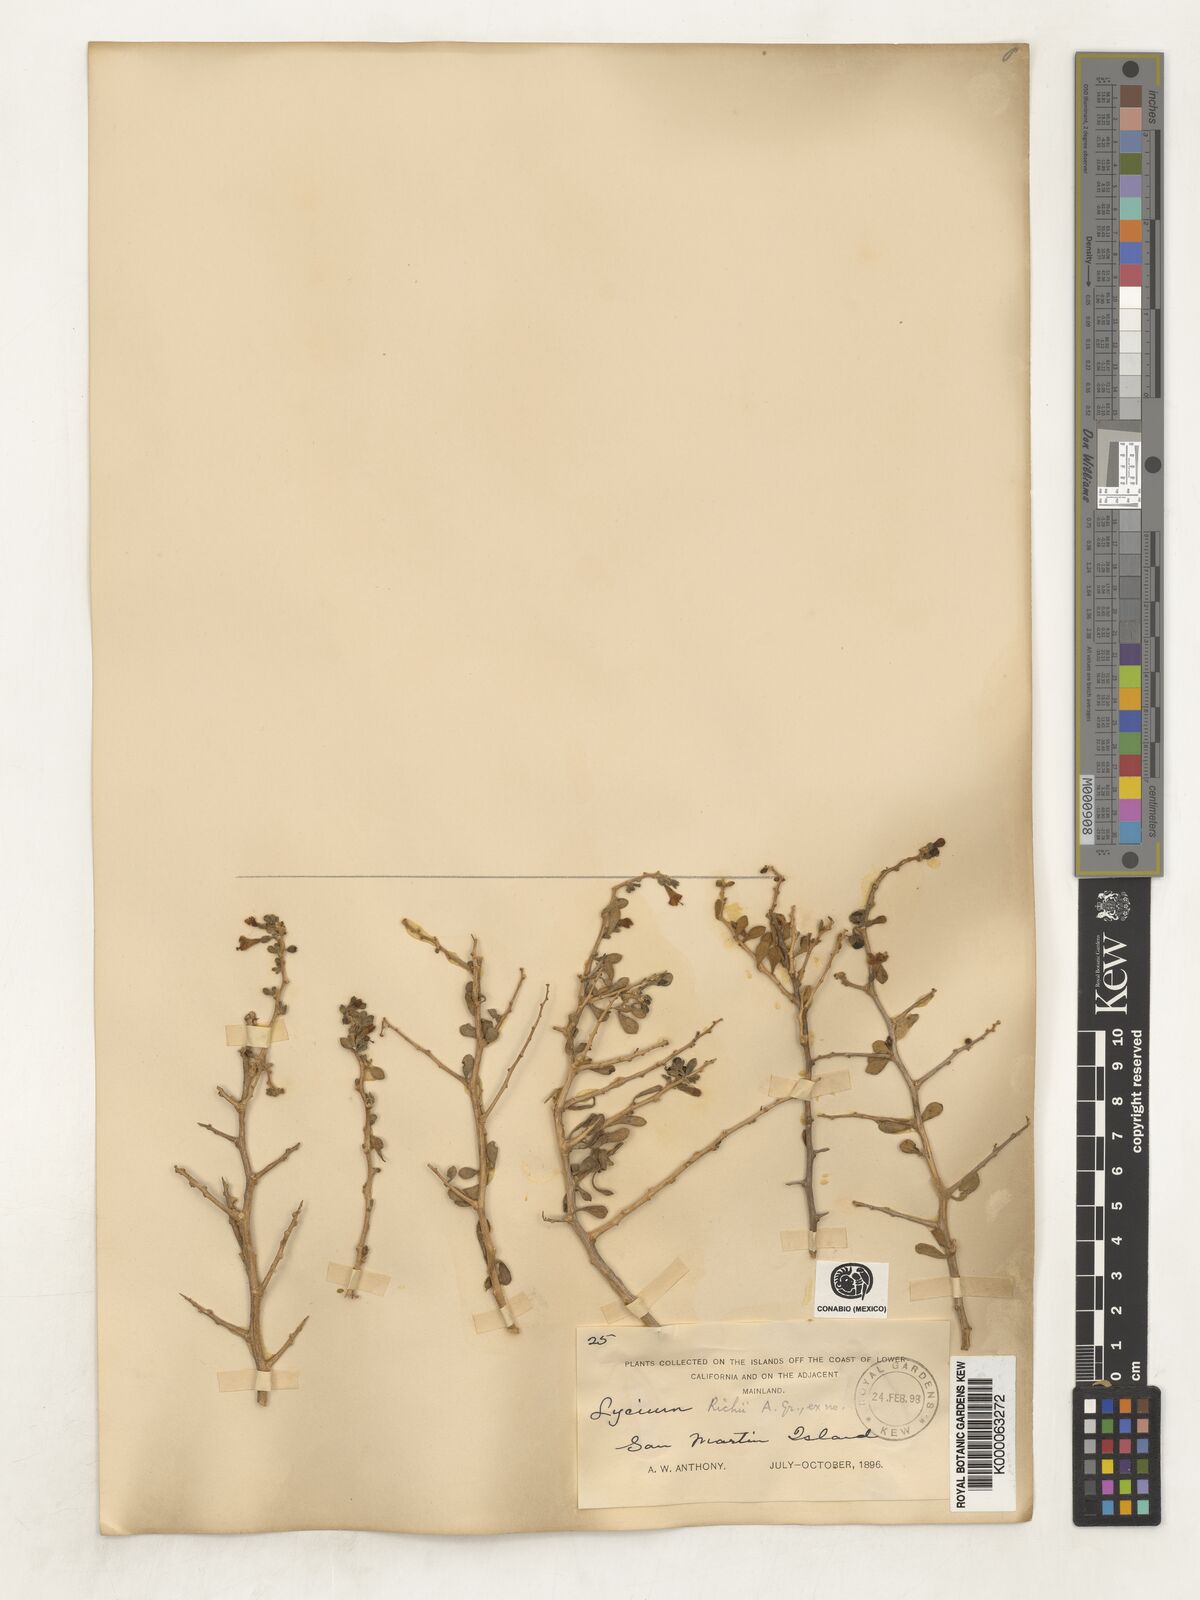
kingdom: Plantae
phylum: Tracheophyta
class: Magnoliopsida
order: Solanales
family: Solanaceae
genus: Lycium
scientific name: Lycium brevipes
